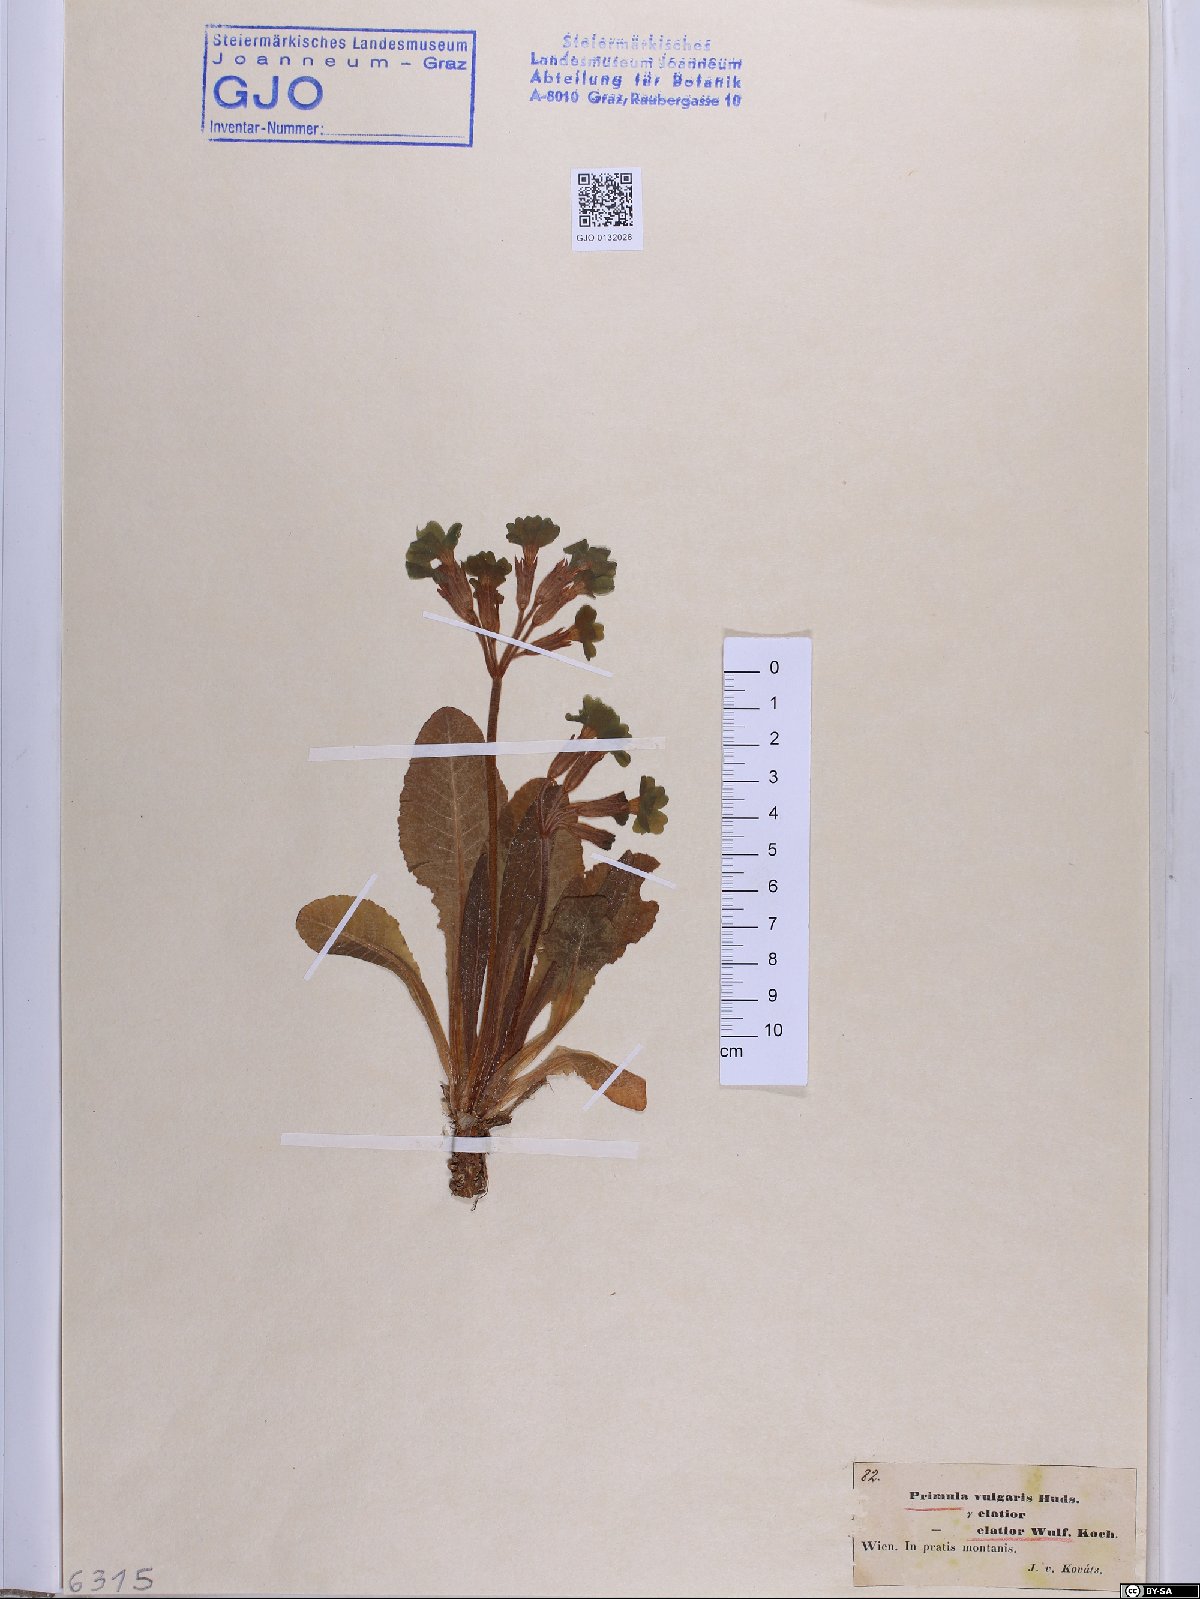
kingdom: Plantae
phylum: Tracheophyta
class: Magnoliopsida
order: Ericales
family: Primulaceae
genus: Primula
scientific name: Primula elatior
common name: Oxlip
